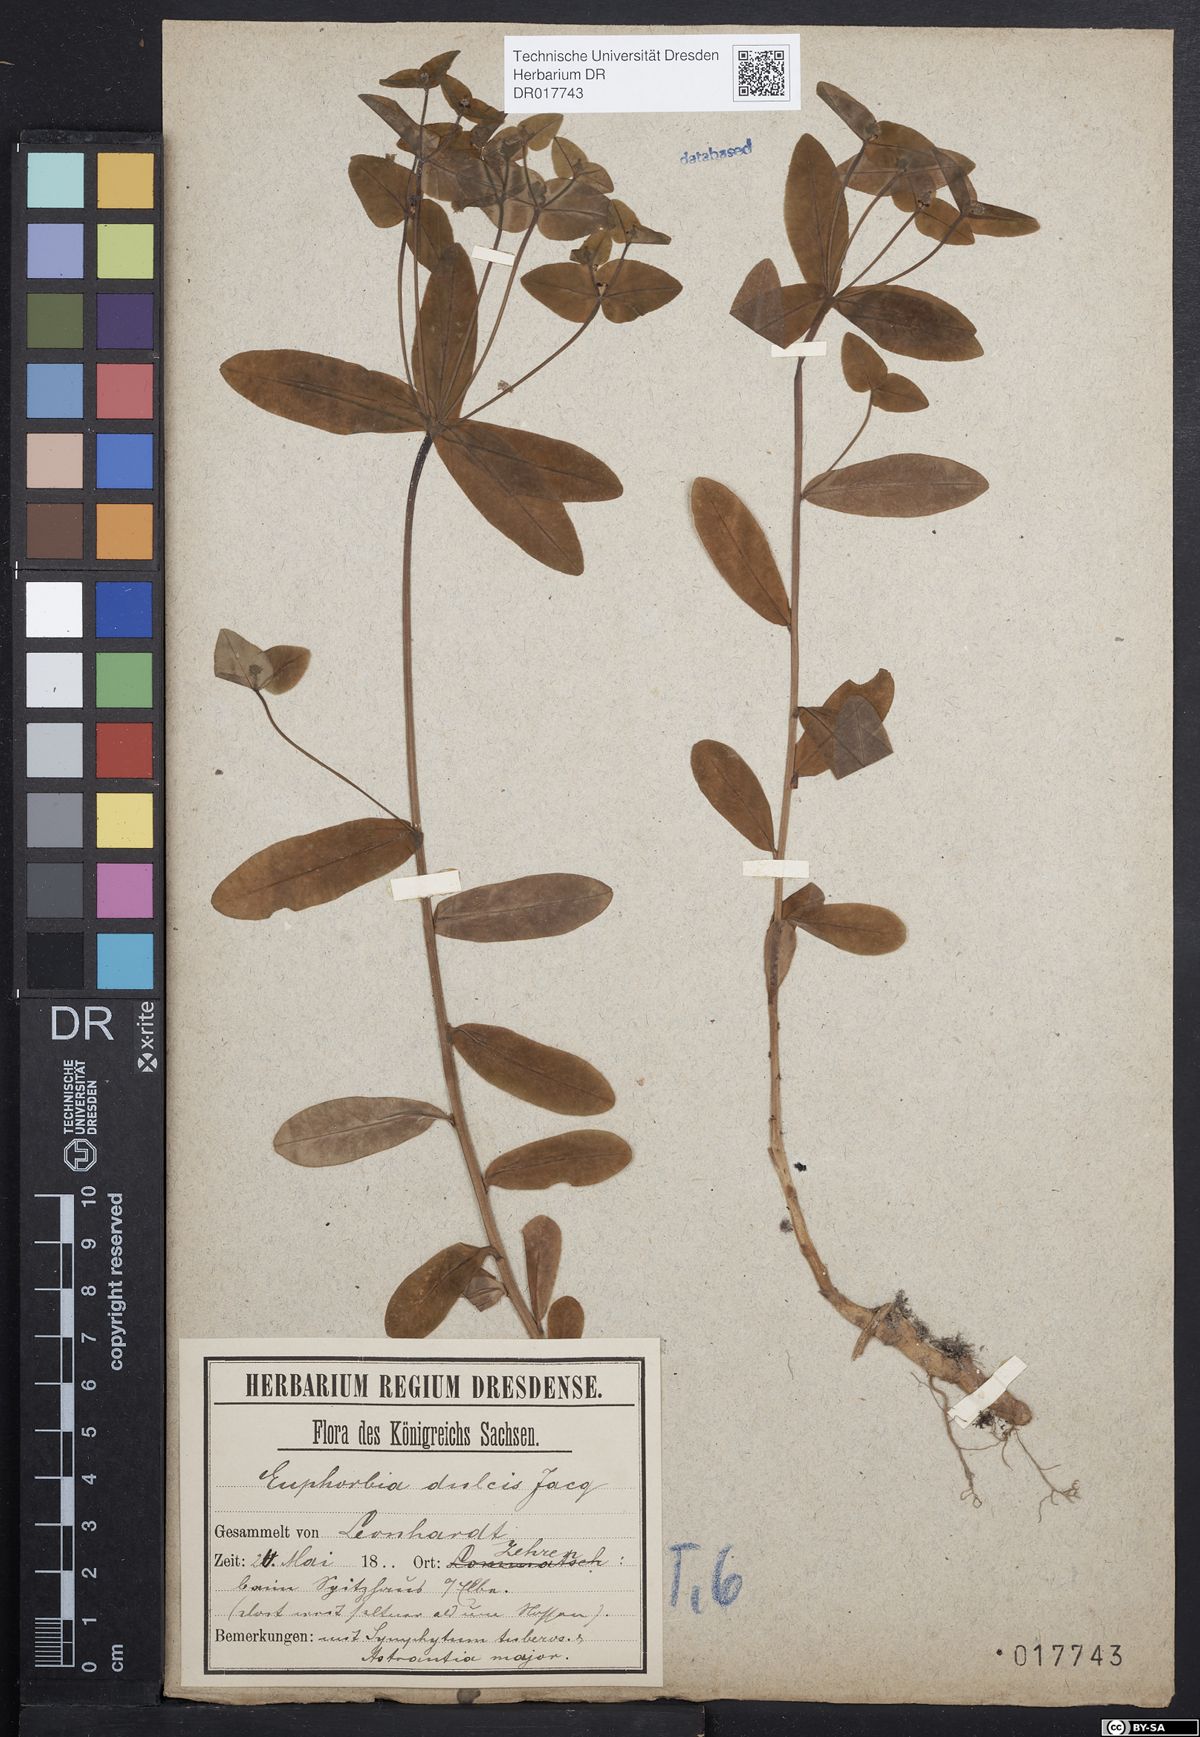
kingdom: Plantae
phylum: Tracheophyta
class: Magnoliopsida
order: Malpighiales
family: Euphorbiaceae
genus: Euphorbia
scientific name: Euphorbia dulcis
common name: Sweet spurge
